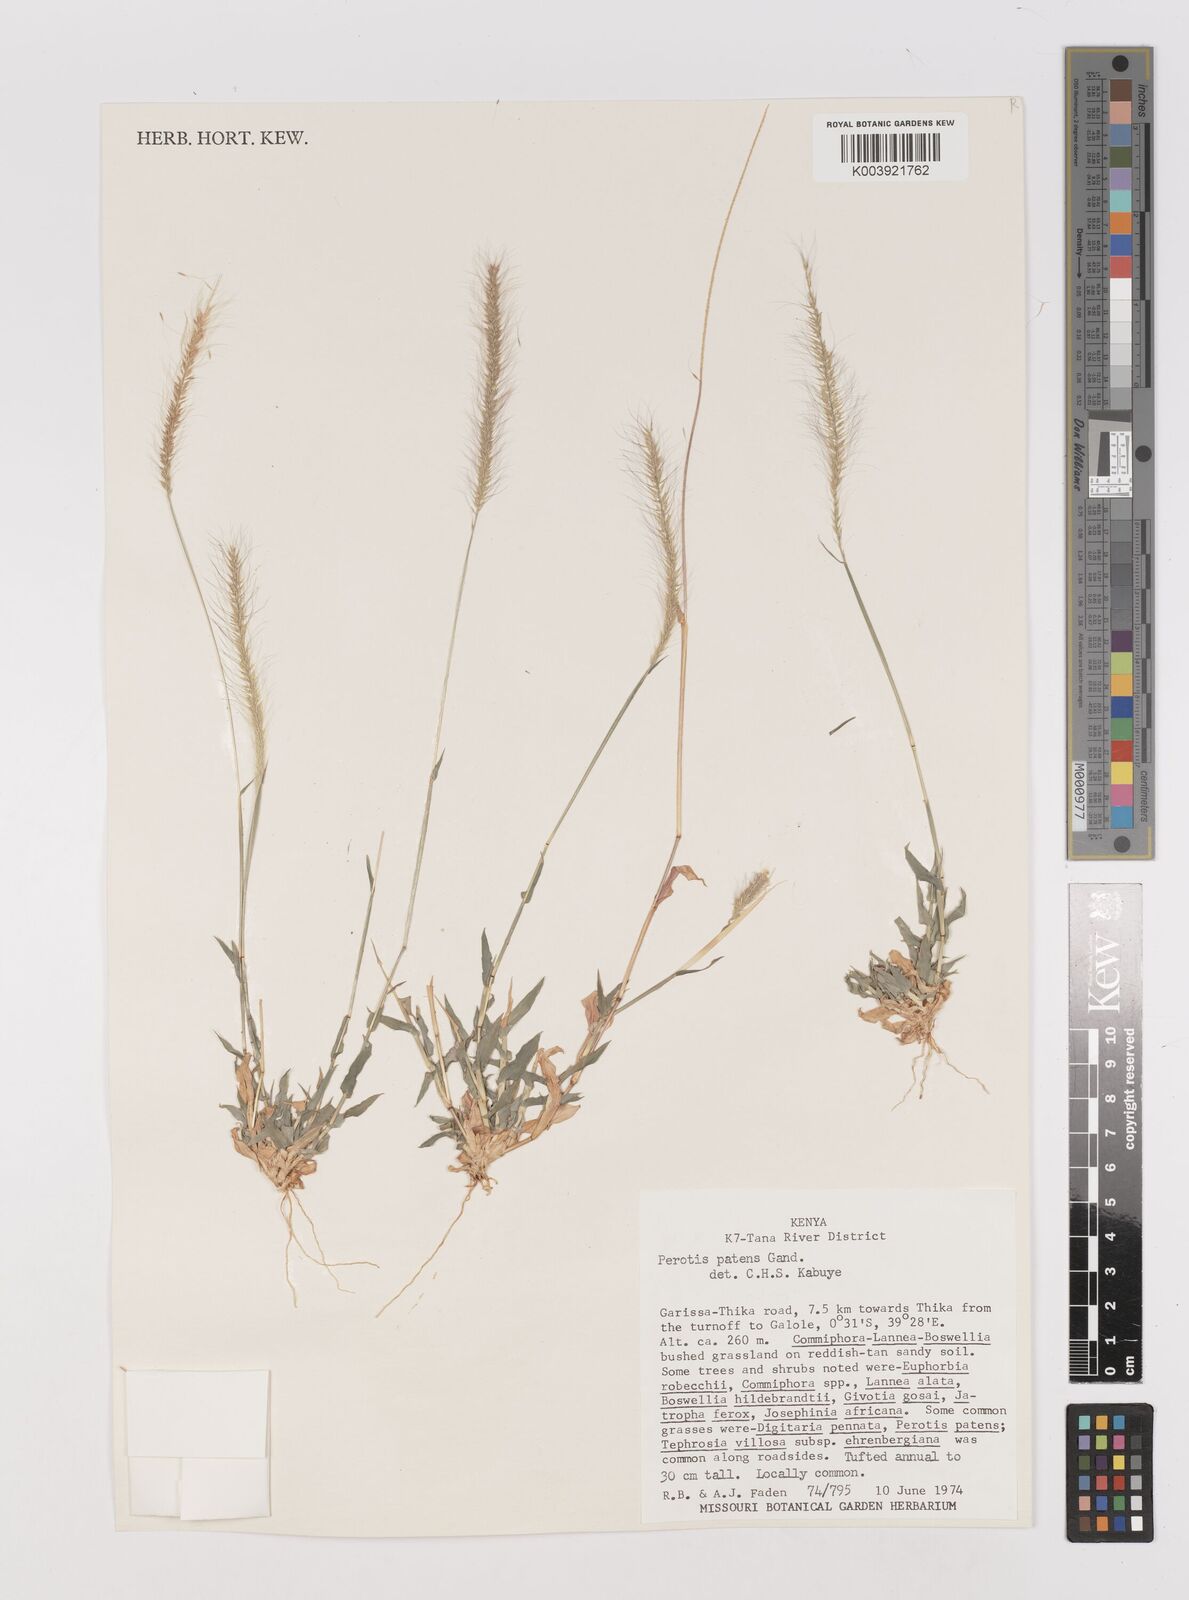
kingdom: Plantae
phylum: Tracheophyta
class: Liliopsida
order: Poales
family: Poaceae
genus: Perotis
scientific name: Perotis patens
